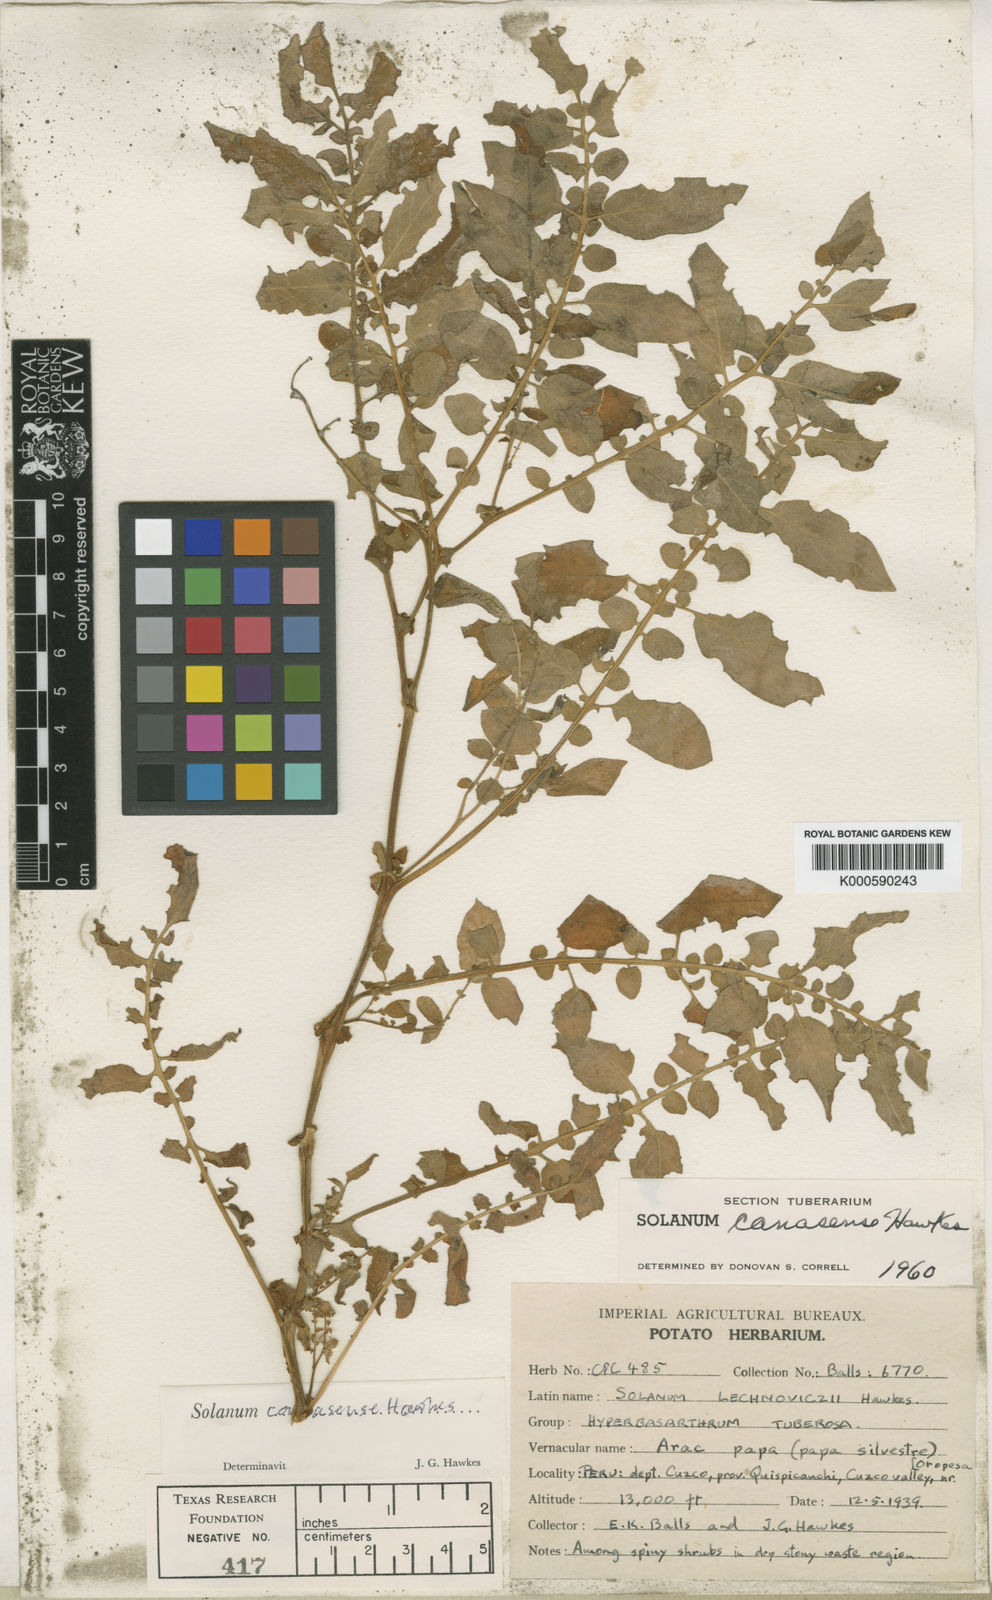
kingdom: Plantae
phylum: Tracheophyta
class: Magnoliopsida
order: Solanales
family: Solanaceae
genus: Solanum
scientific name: Solanum candolleanum
